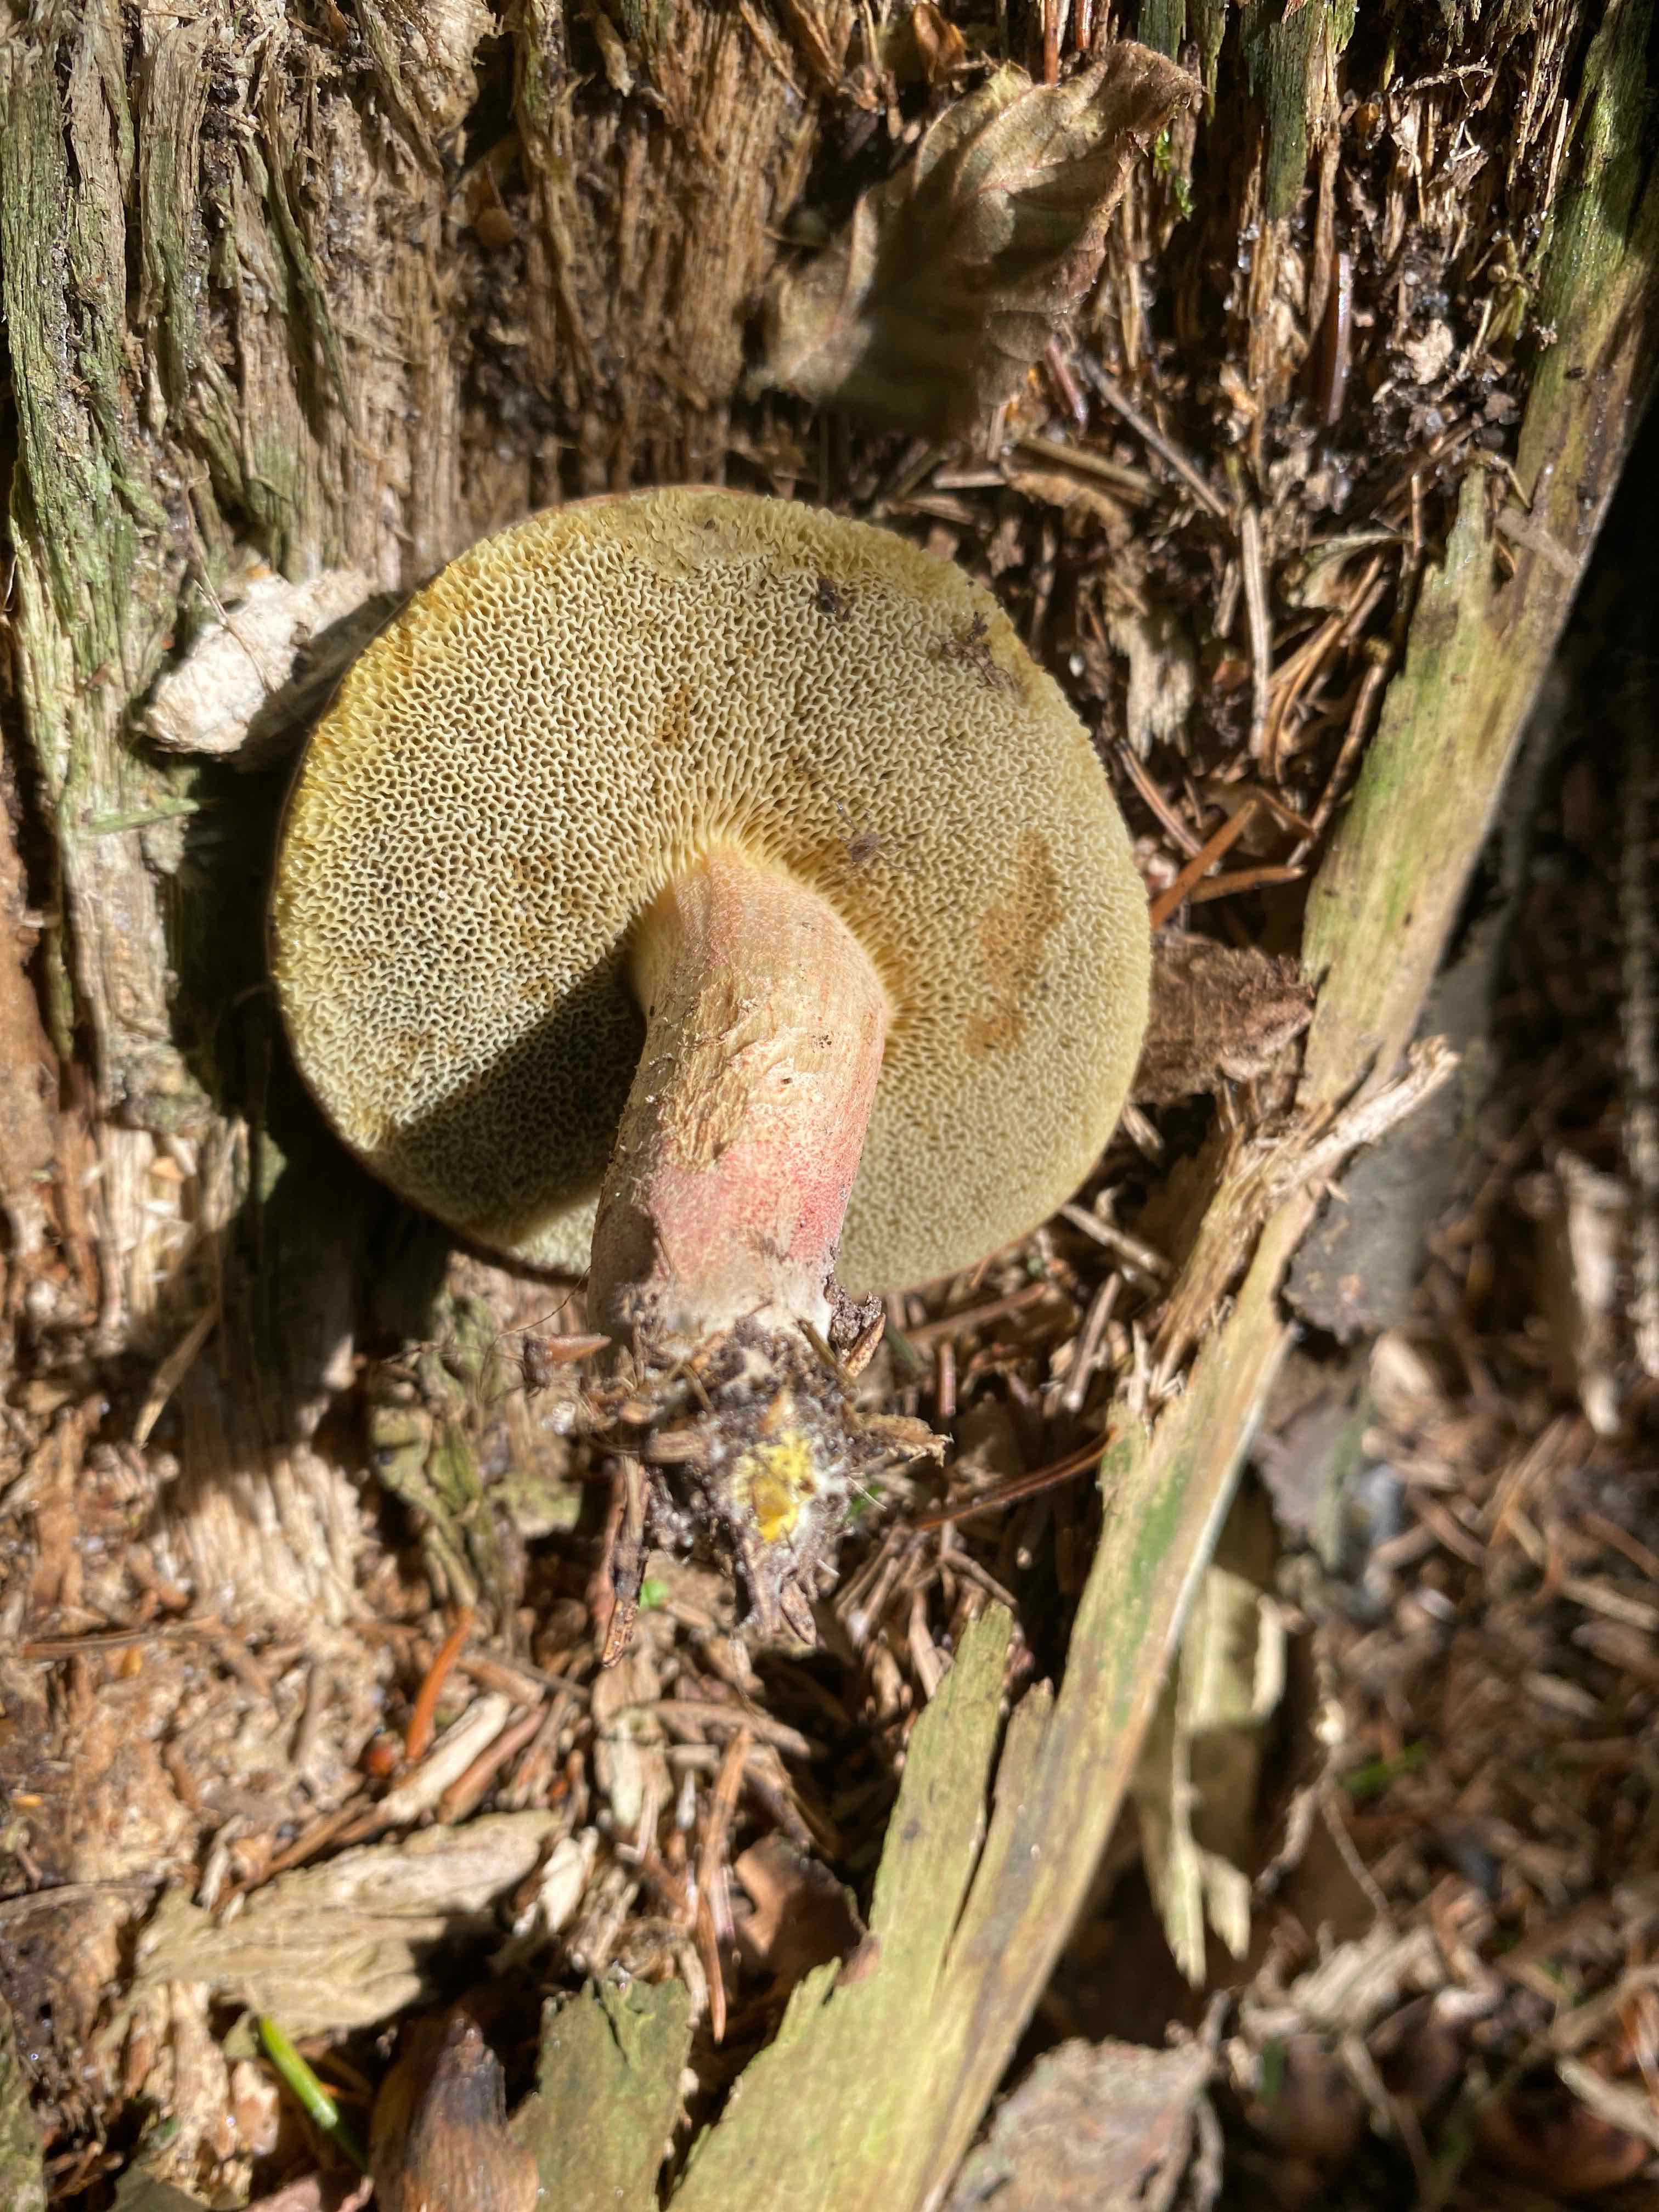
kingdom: Fungi
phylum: Basidiomycota
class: Agaricomycetes
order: Boletales
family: Boletaceae
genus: Xerocomellus
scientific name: Xerocomellus
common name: dværgrørhat
